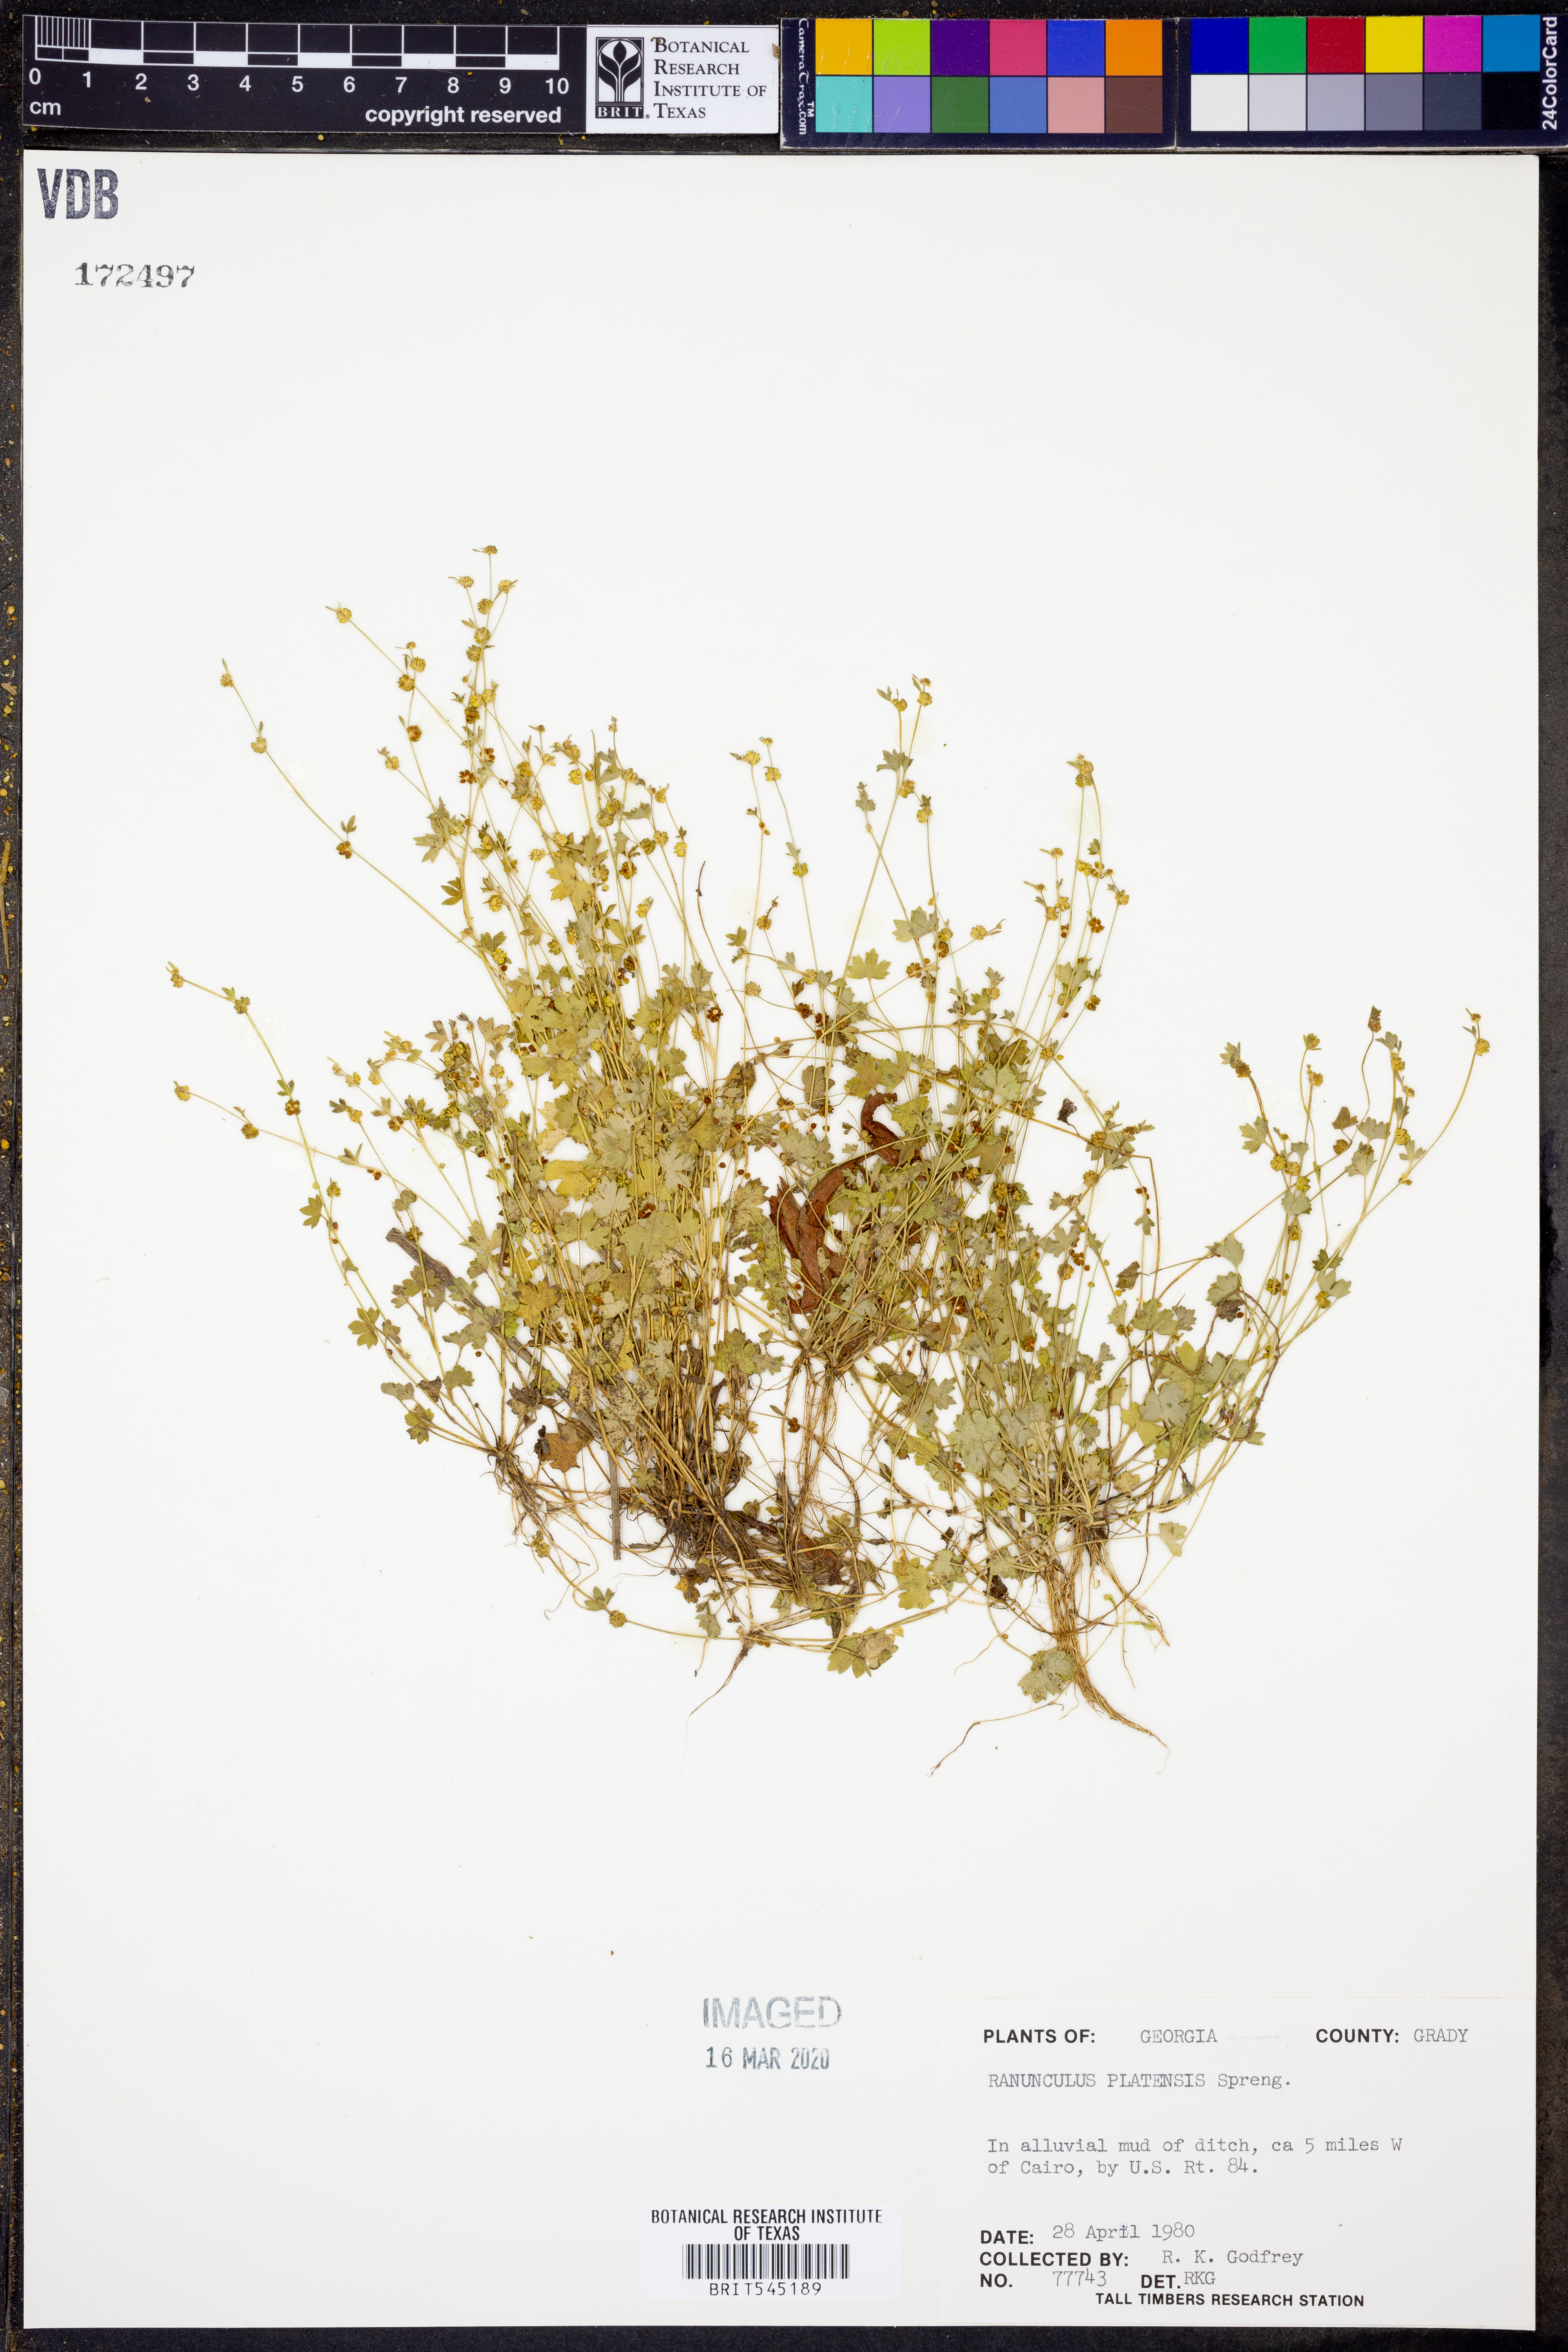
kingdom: Plantae
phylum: Tracheophyta
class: Magnoliopsida
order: Ranunculales
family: Ranunculaceae
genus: Ranunculus
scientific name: Ranunculus platensis
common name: Prairie buttercup
